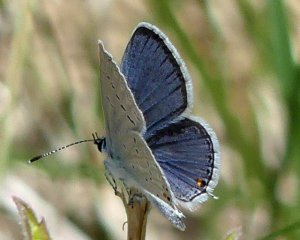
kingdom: Animalia
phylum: Arthropoda
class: Insecta
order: Lepidoptera
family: Lycaenidae
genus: Elkalyce
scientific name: Elkalyce comyntas
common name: Eastern Tailed-Blue
